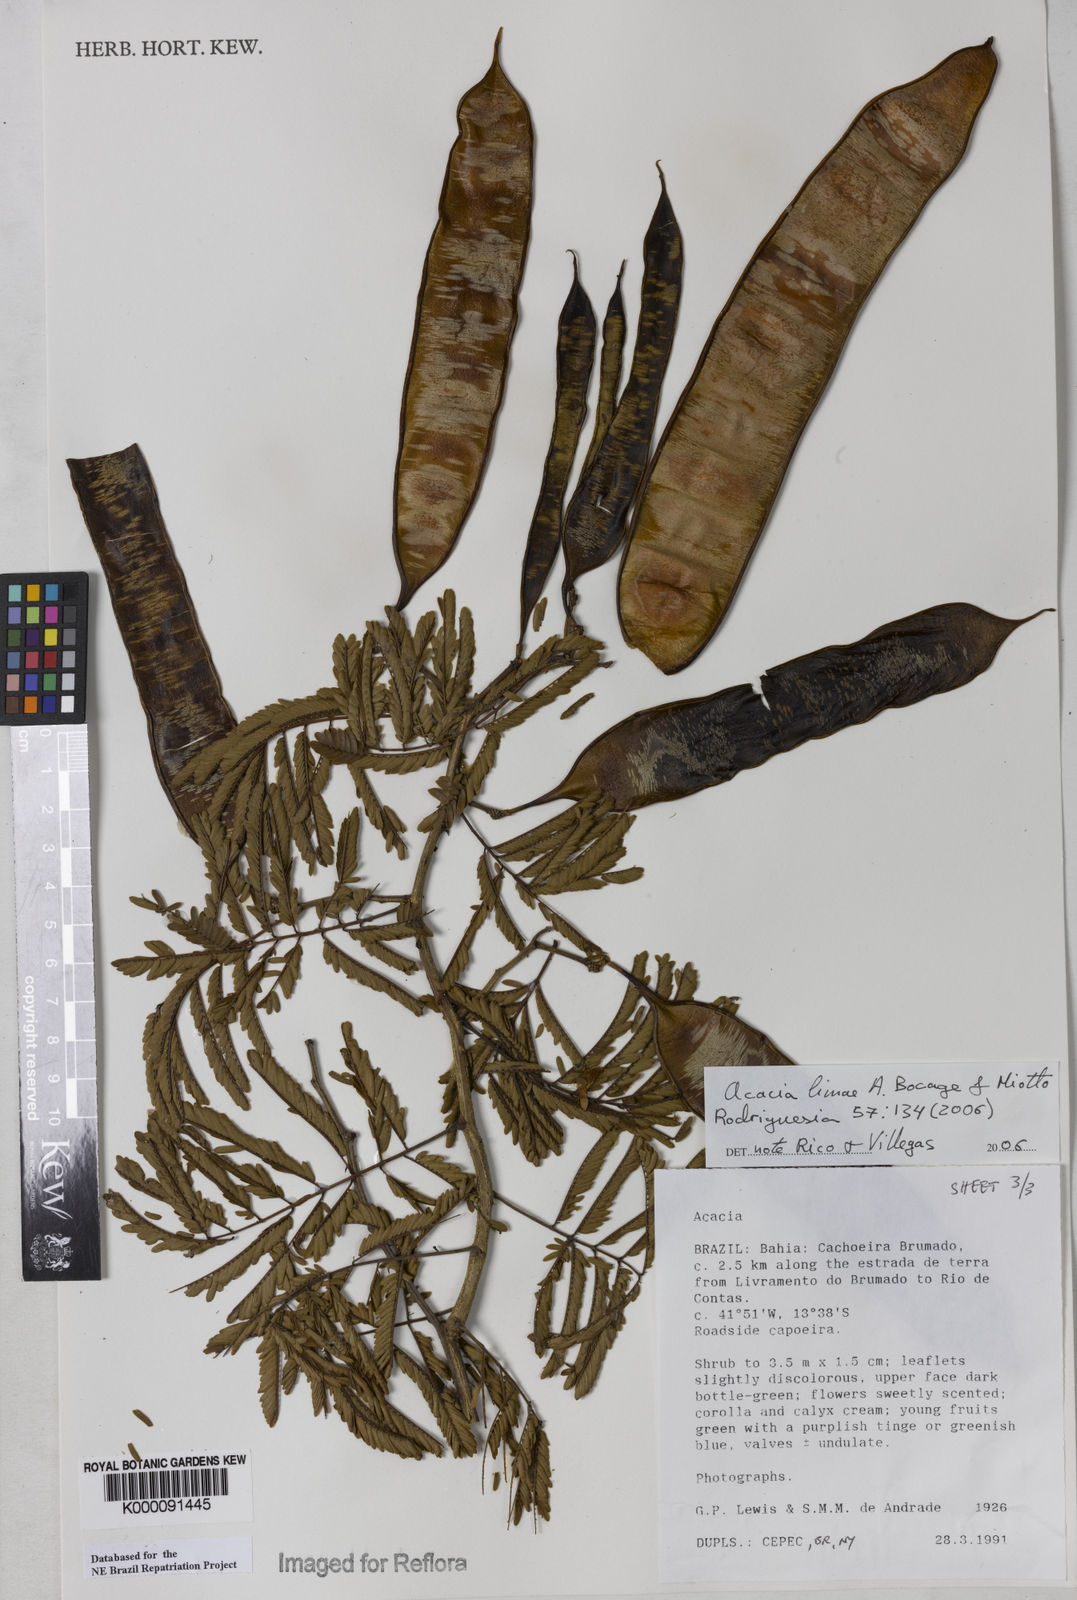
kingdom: Plantae
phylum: Tracheophyta
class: Magnoliopsida
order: Fabales
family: Fabaceae
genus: Senegalia
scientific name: Senegalia lasiophylla
